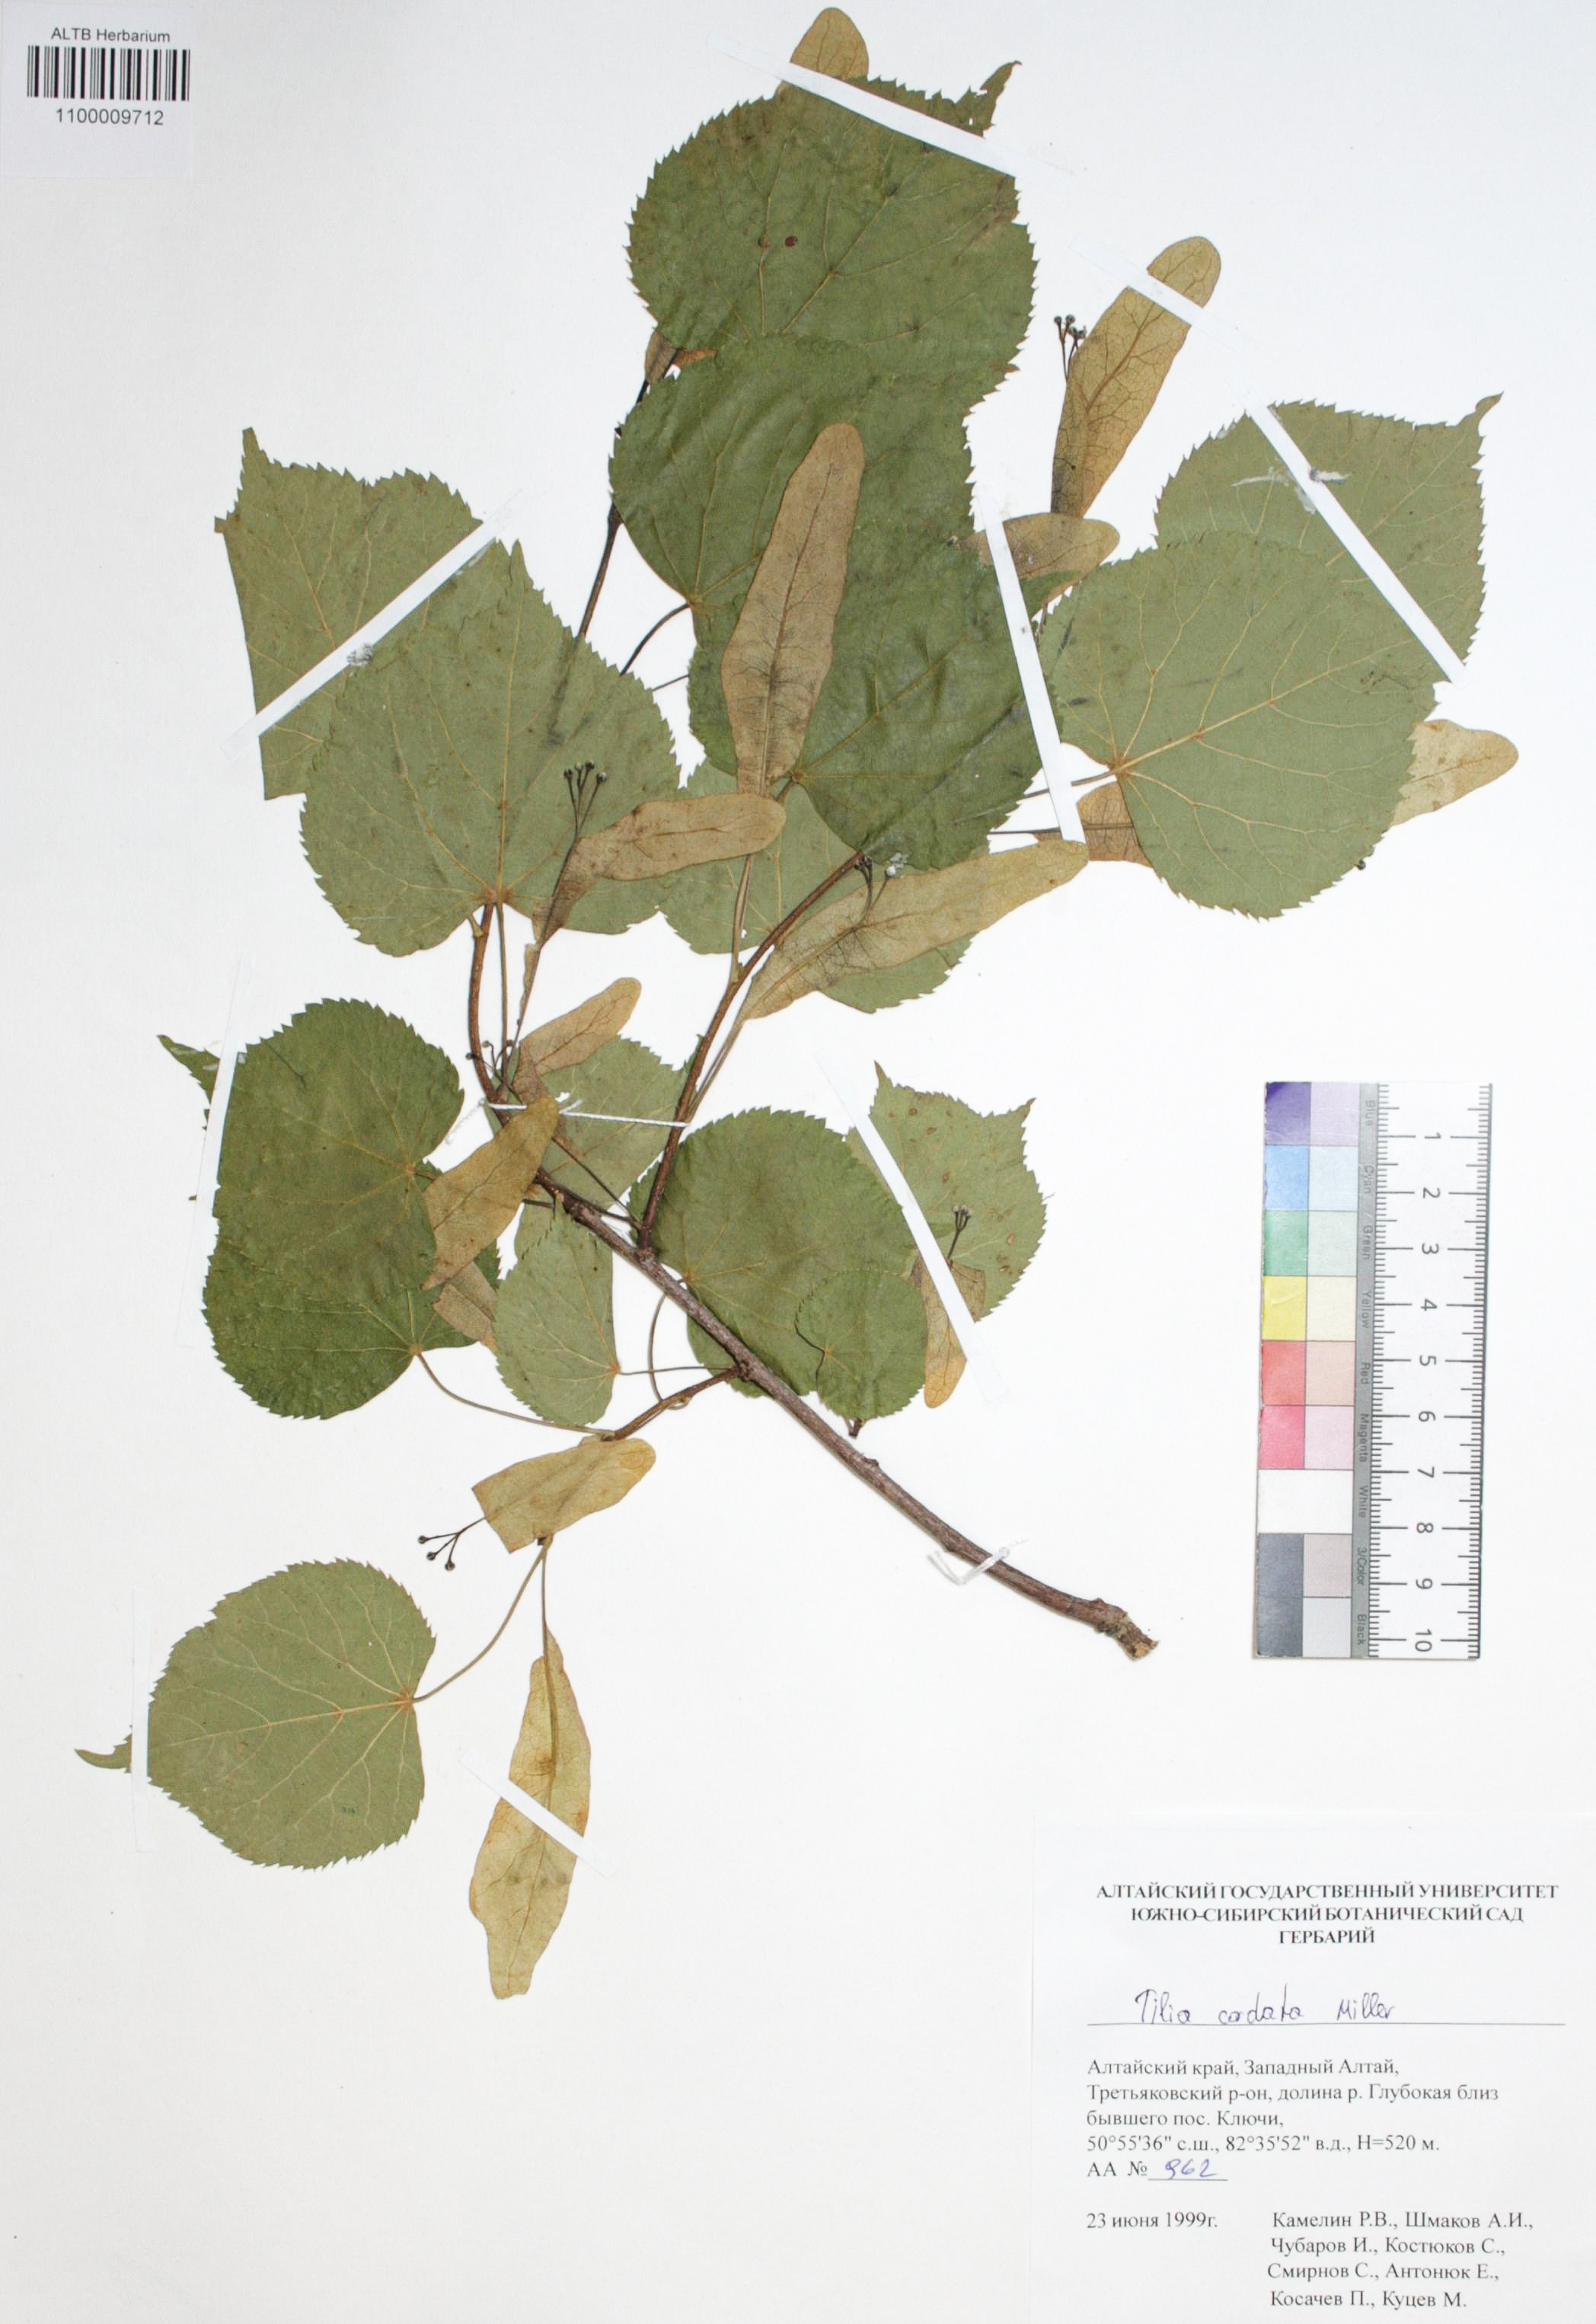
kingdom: Plantae
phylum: Tracheophyta
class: Magnoliopsida
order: Malvales
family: Malvaceae
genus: Tilia
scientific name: Tilia cordata
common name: Small-leaved lime
